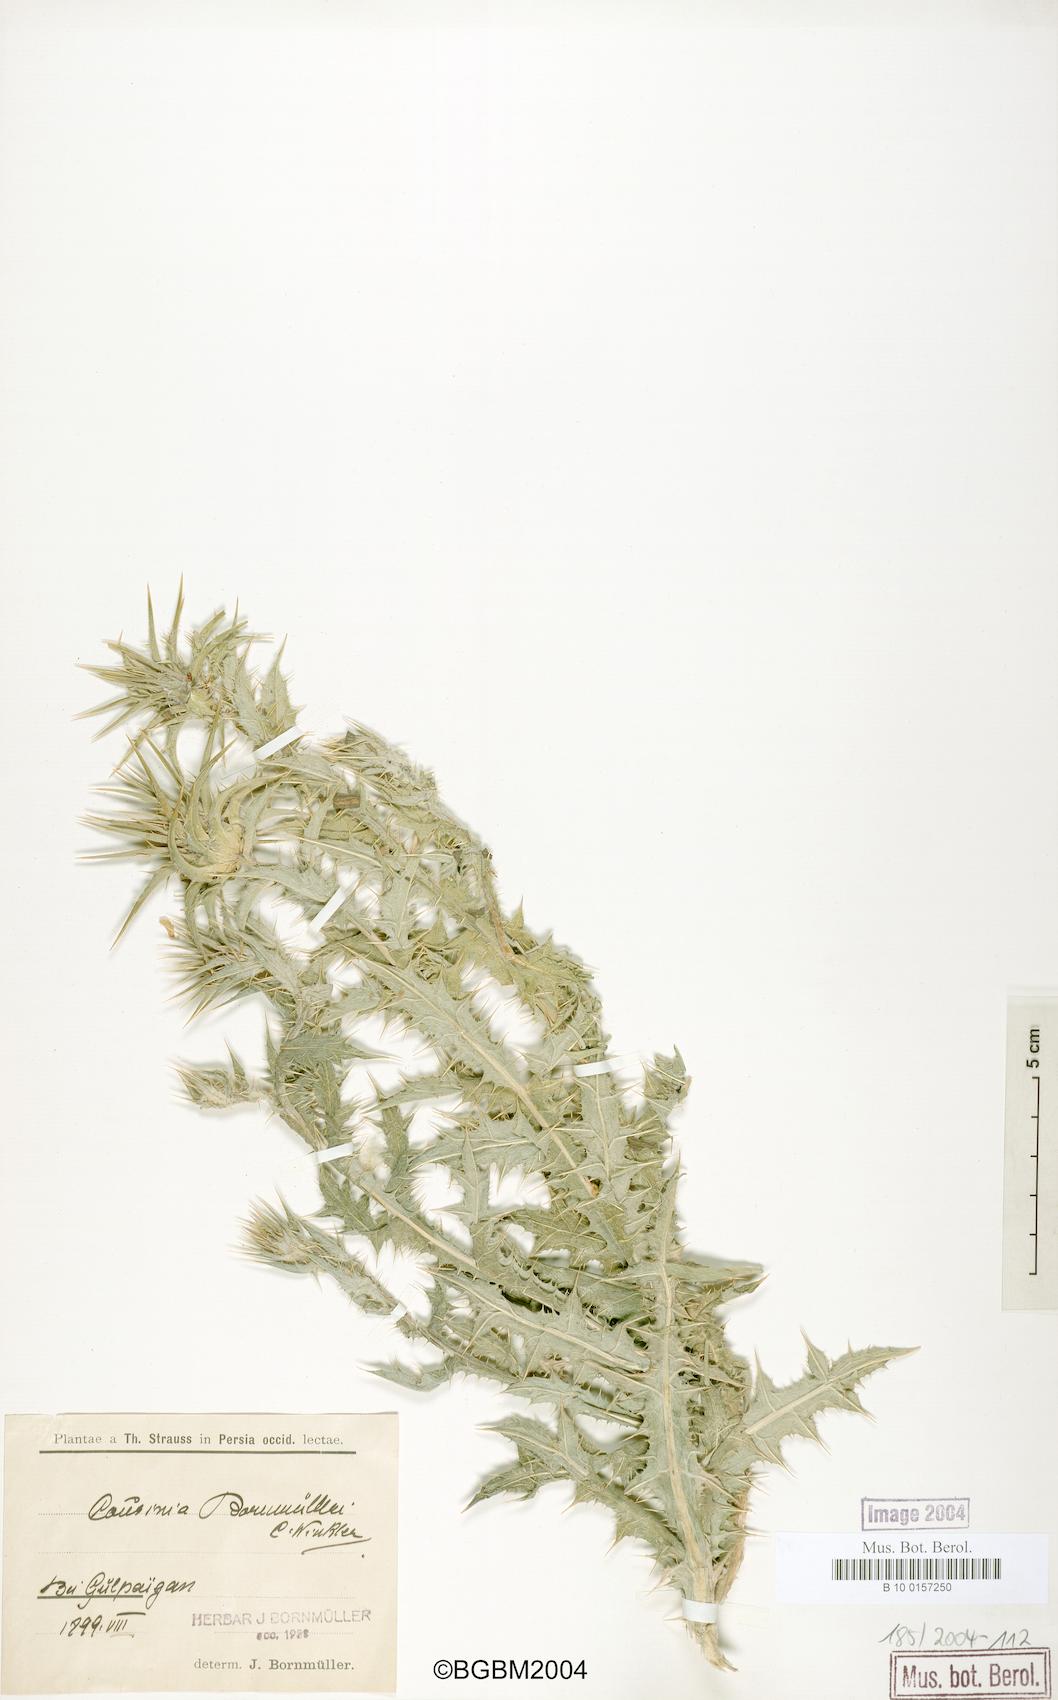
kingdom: Plantae
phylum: Tracheophyta
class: Magnoliopsida
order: Asterales
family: Asteraceae
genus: Cousinia
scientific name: Cousinia onopordioides
